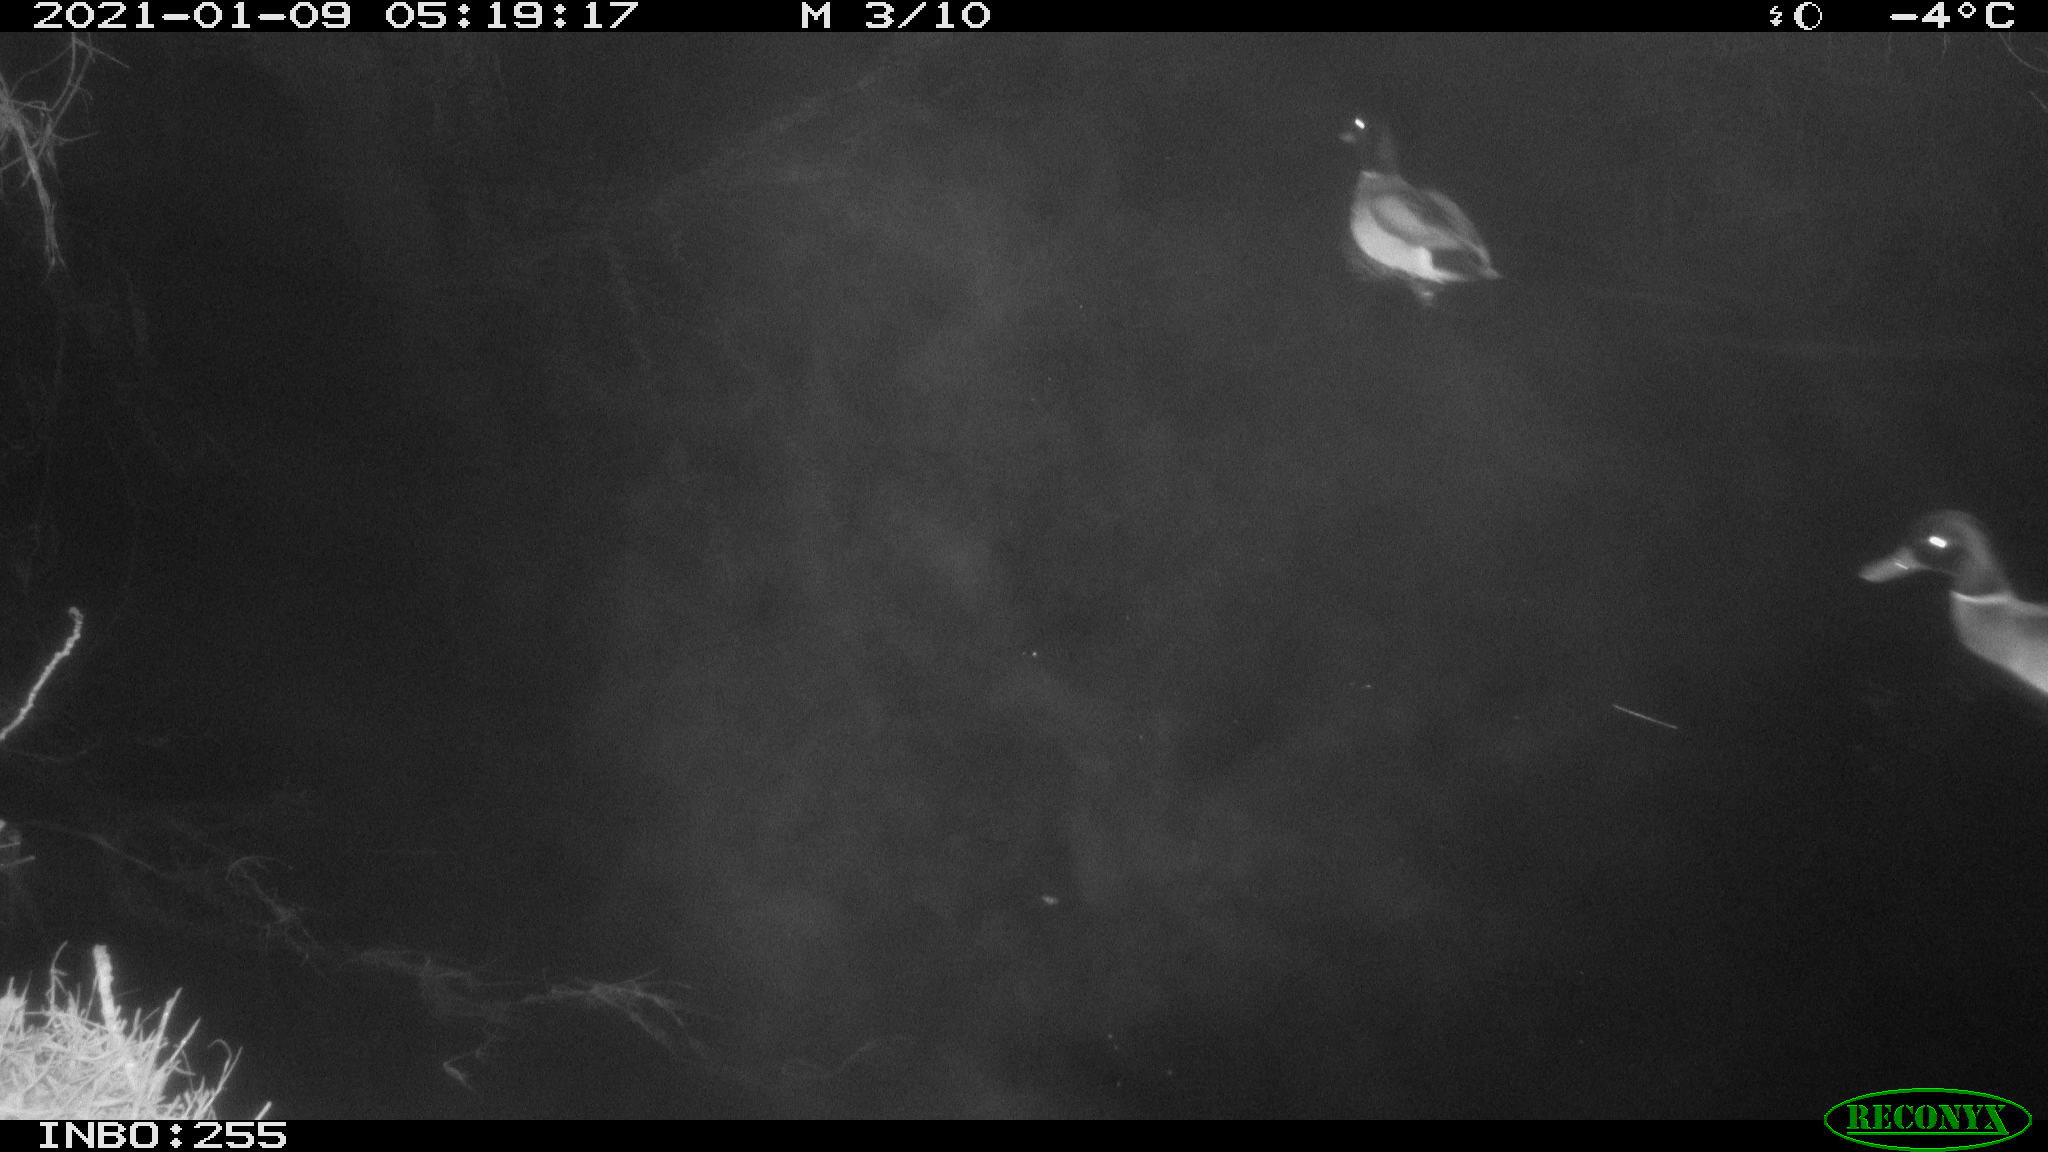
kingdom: Animalia
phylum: Chordata
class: Aves
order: Anseriformes
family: Anatidae
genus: Anas
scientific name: Anas platyrhynchos
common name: Mallard
